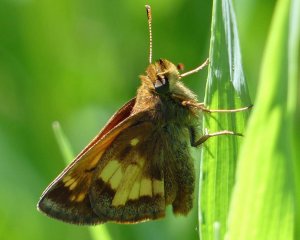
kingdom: Animalia
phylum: Arthropoda
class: Insecta
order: Lepidoptera
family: Hesperiidae
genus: Lon
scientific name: Lon hobomok
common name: Hobomok Skipper
